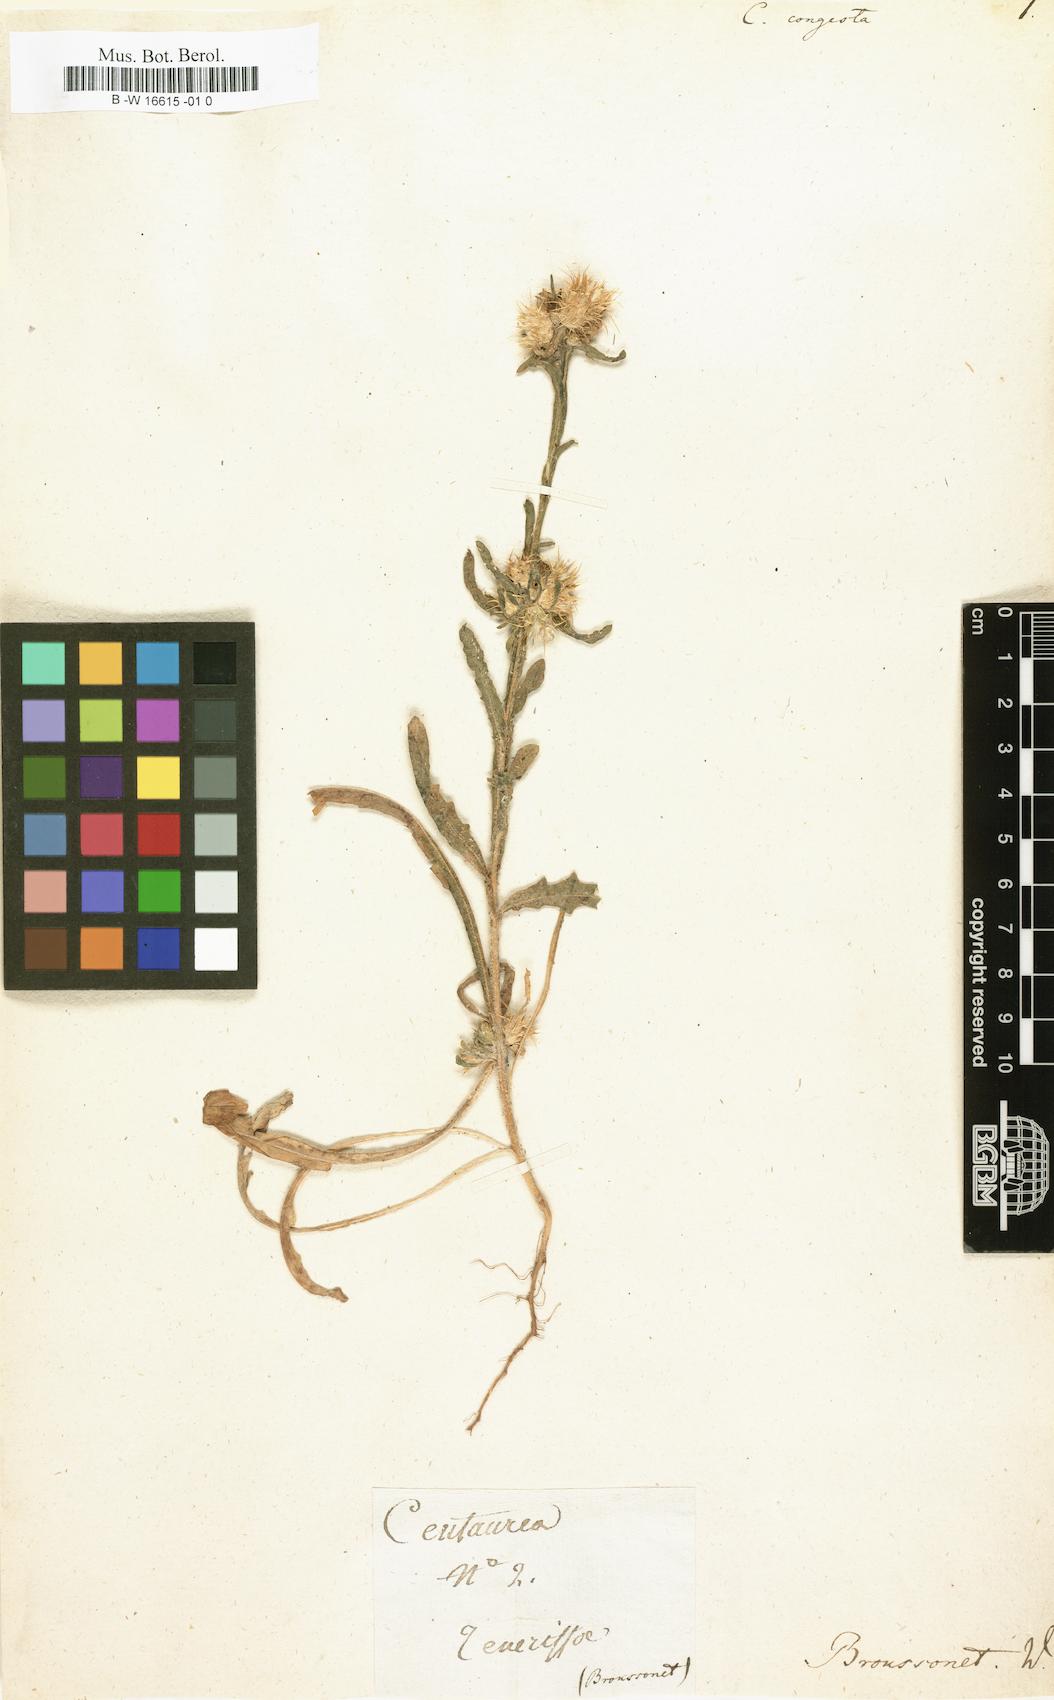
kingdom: Plantae
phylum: Tracheophyta
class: Magnoliopsida
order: Asterales
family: Asteraceae
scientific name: Asteraceae
